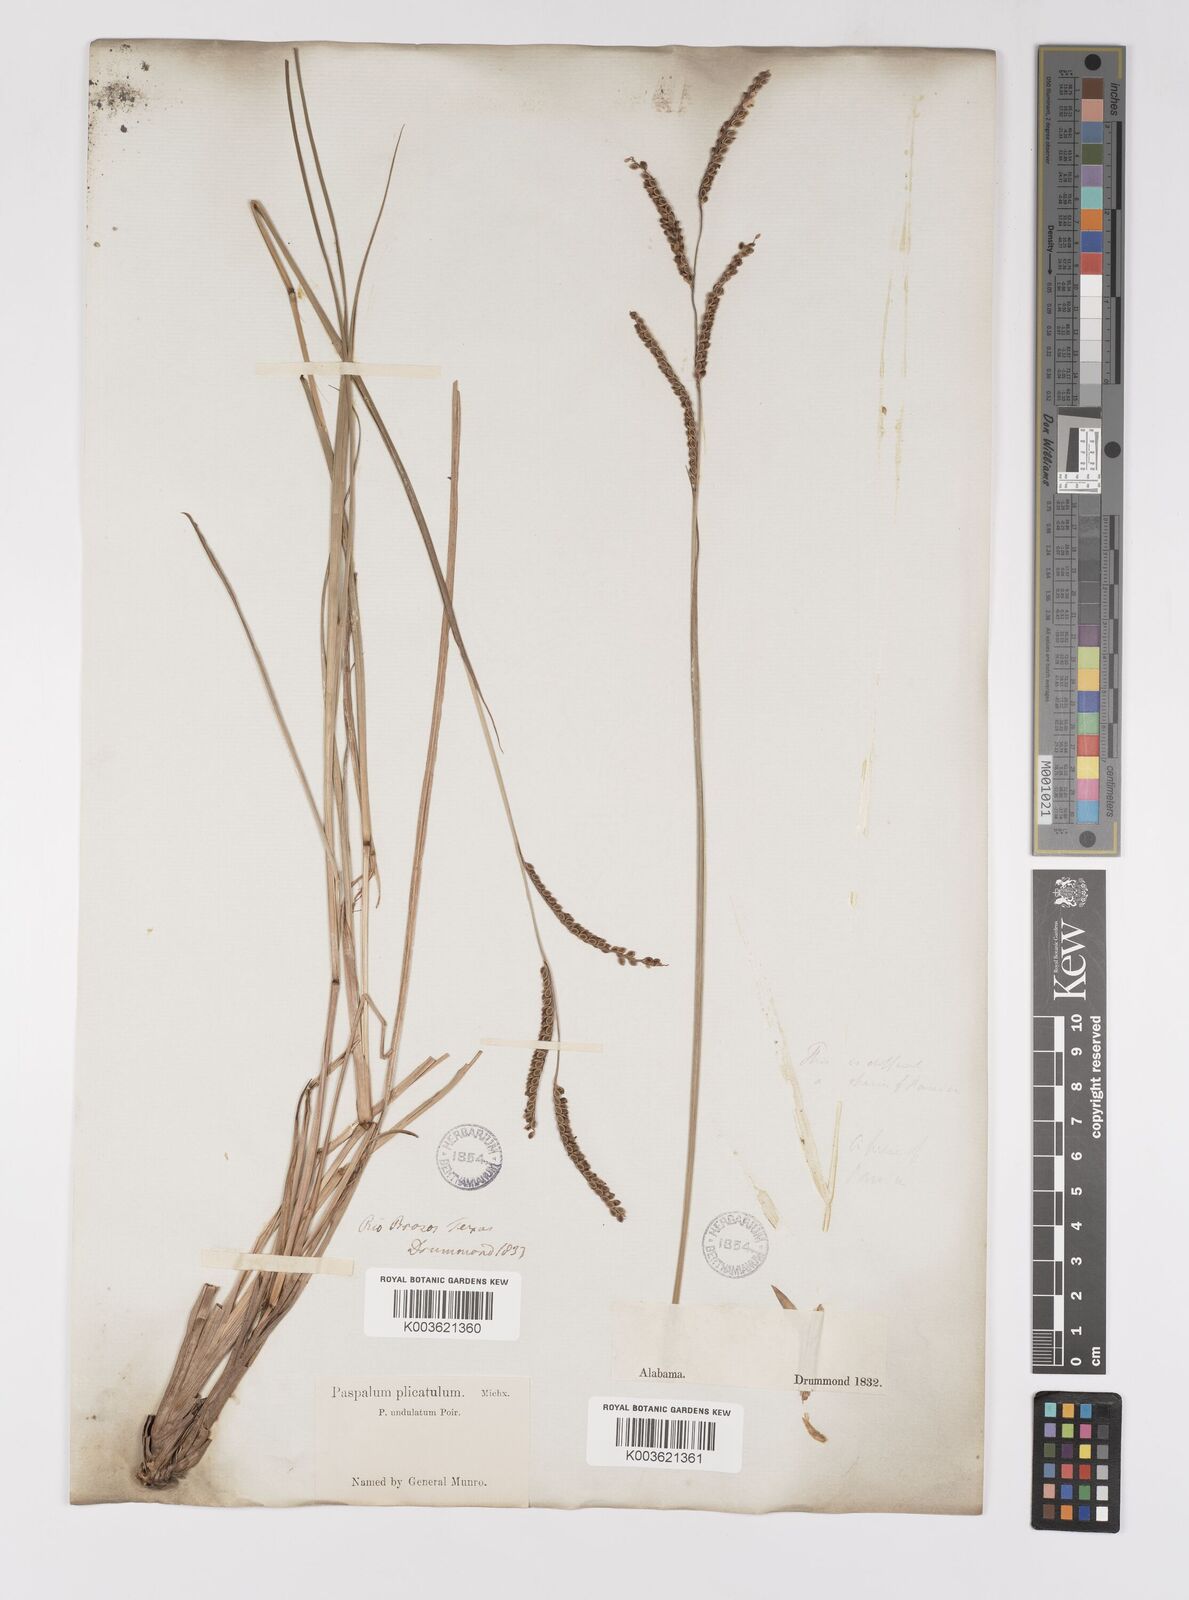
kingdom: Plantae
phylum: Tracheophyta
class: Liliopsida
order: Poales
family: Poaceae
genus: Paspalum
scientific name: Paspalum plicatulum
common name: Top paspalum
